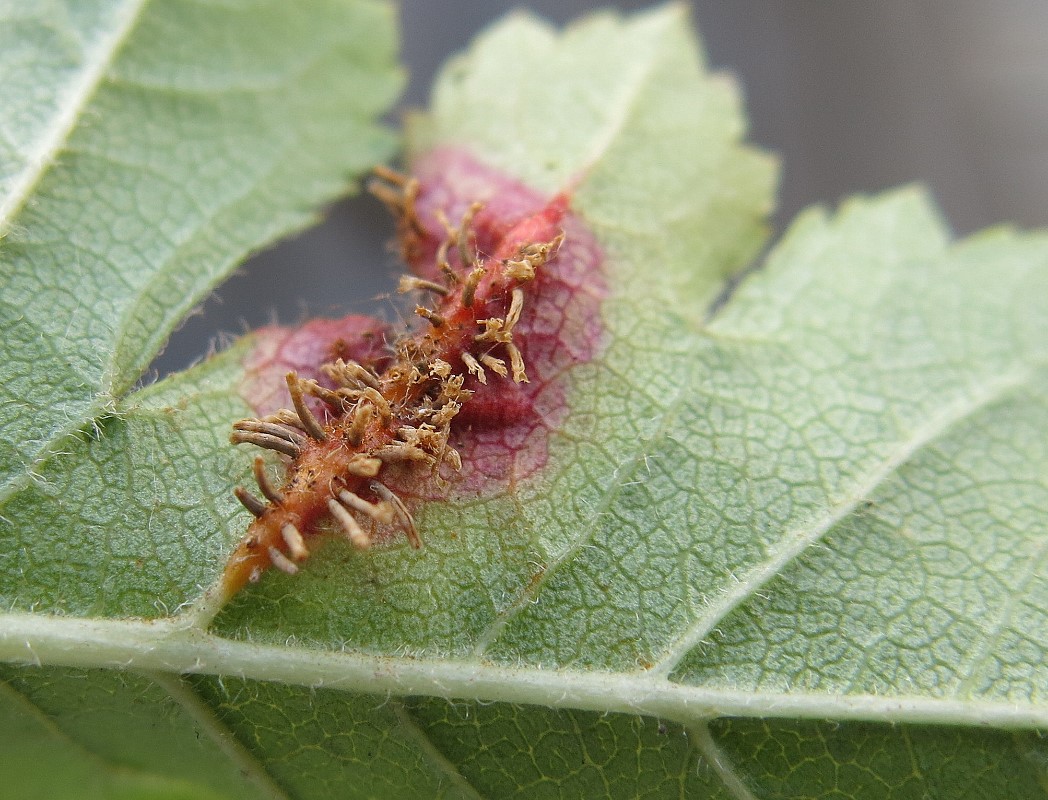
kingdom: Fungi
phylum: Basidiomycota
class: Pucciniomycetes
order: Pucciniales
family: Gymnosporangiaceae
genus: Gymnosporangium
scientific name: Gymnosporangium
